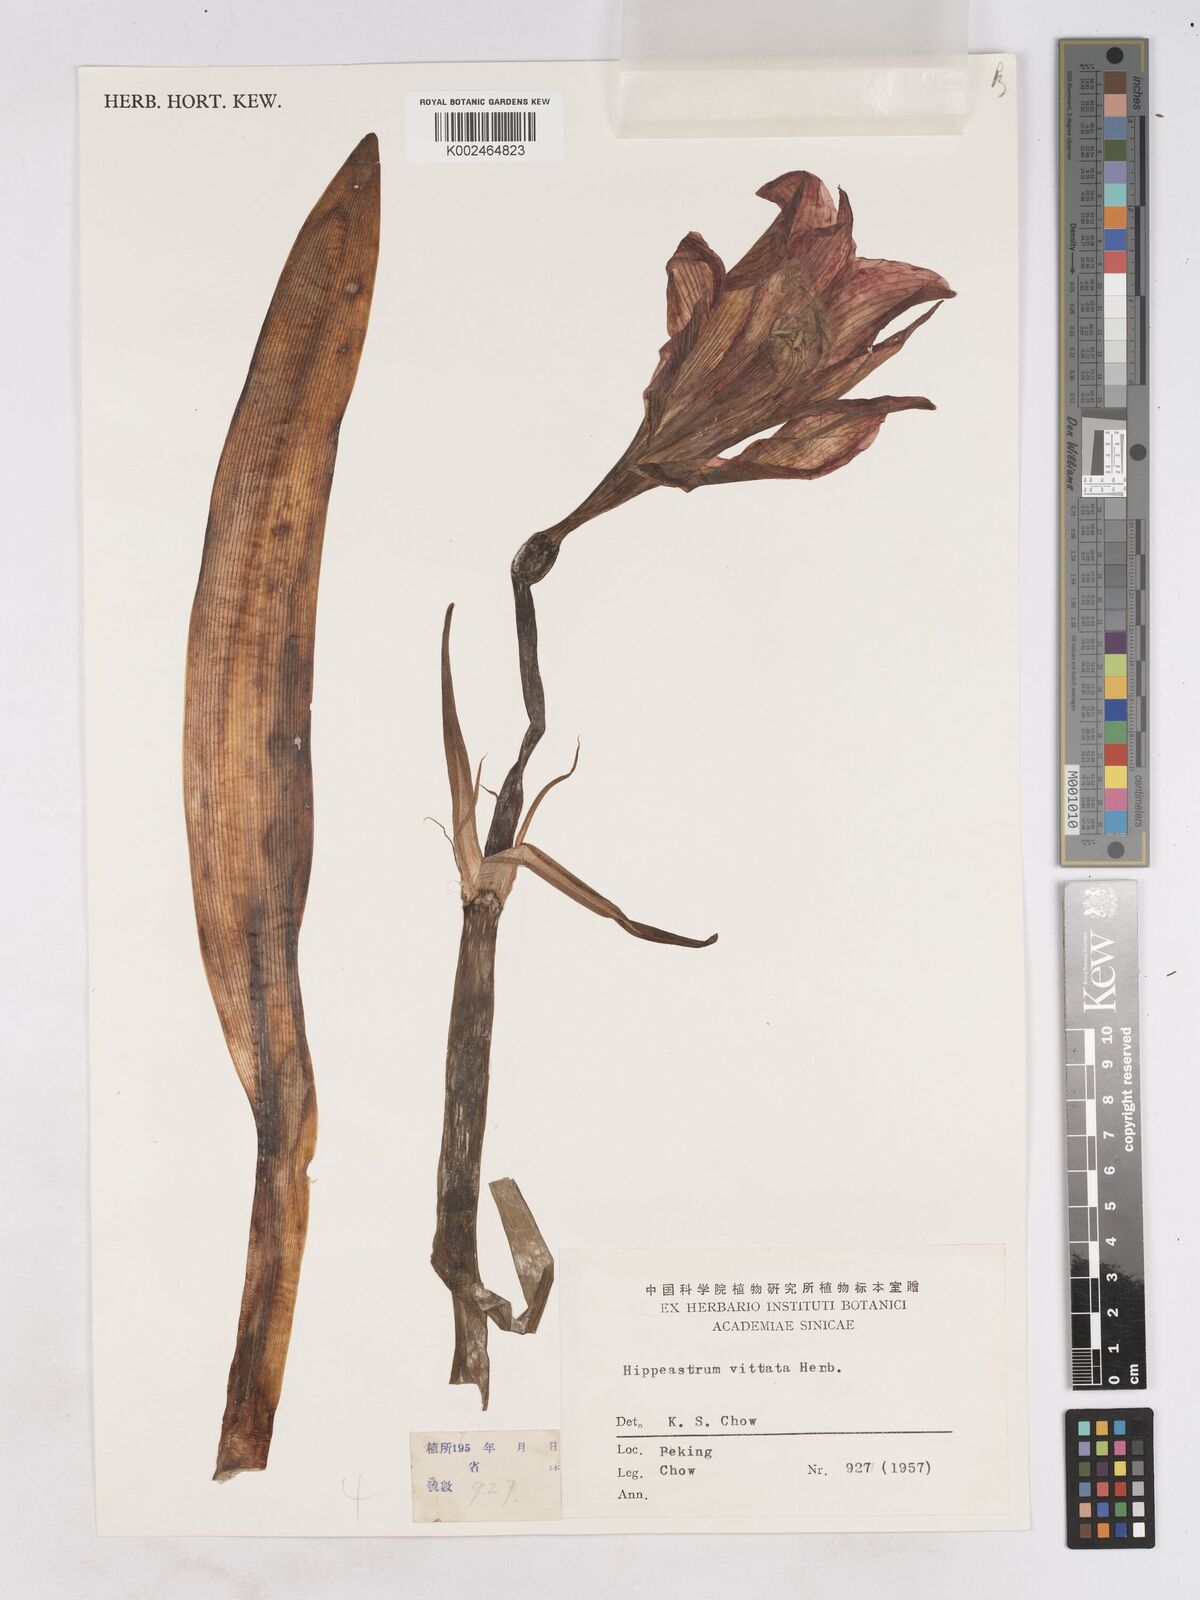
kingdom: Plantae
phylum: Tracheophyta
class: Liliopsida
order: Asparagales
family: Amaryllidaceae
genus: Hippeastrum
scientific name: Hippeastrum
